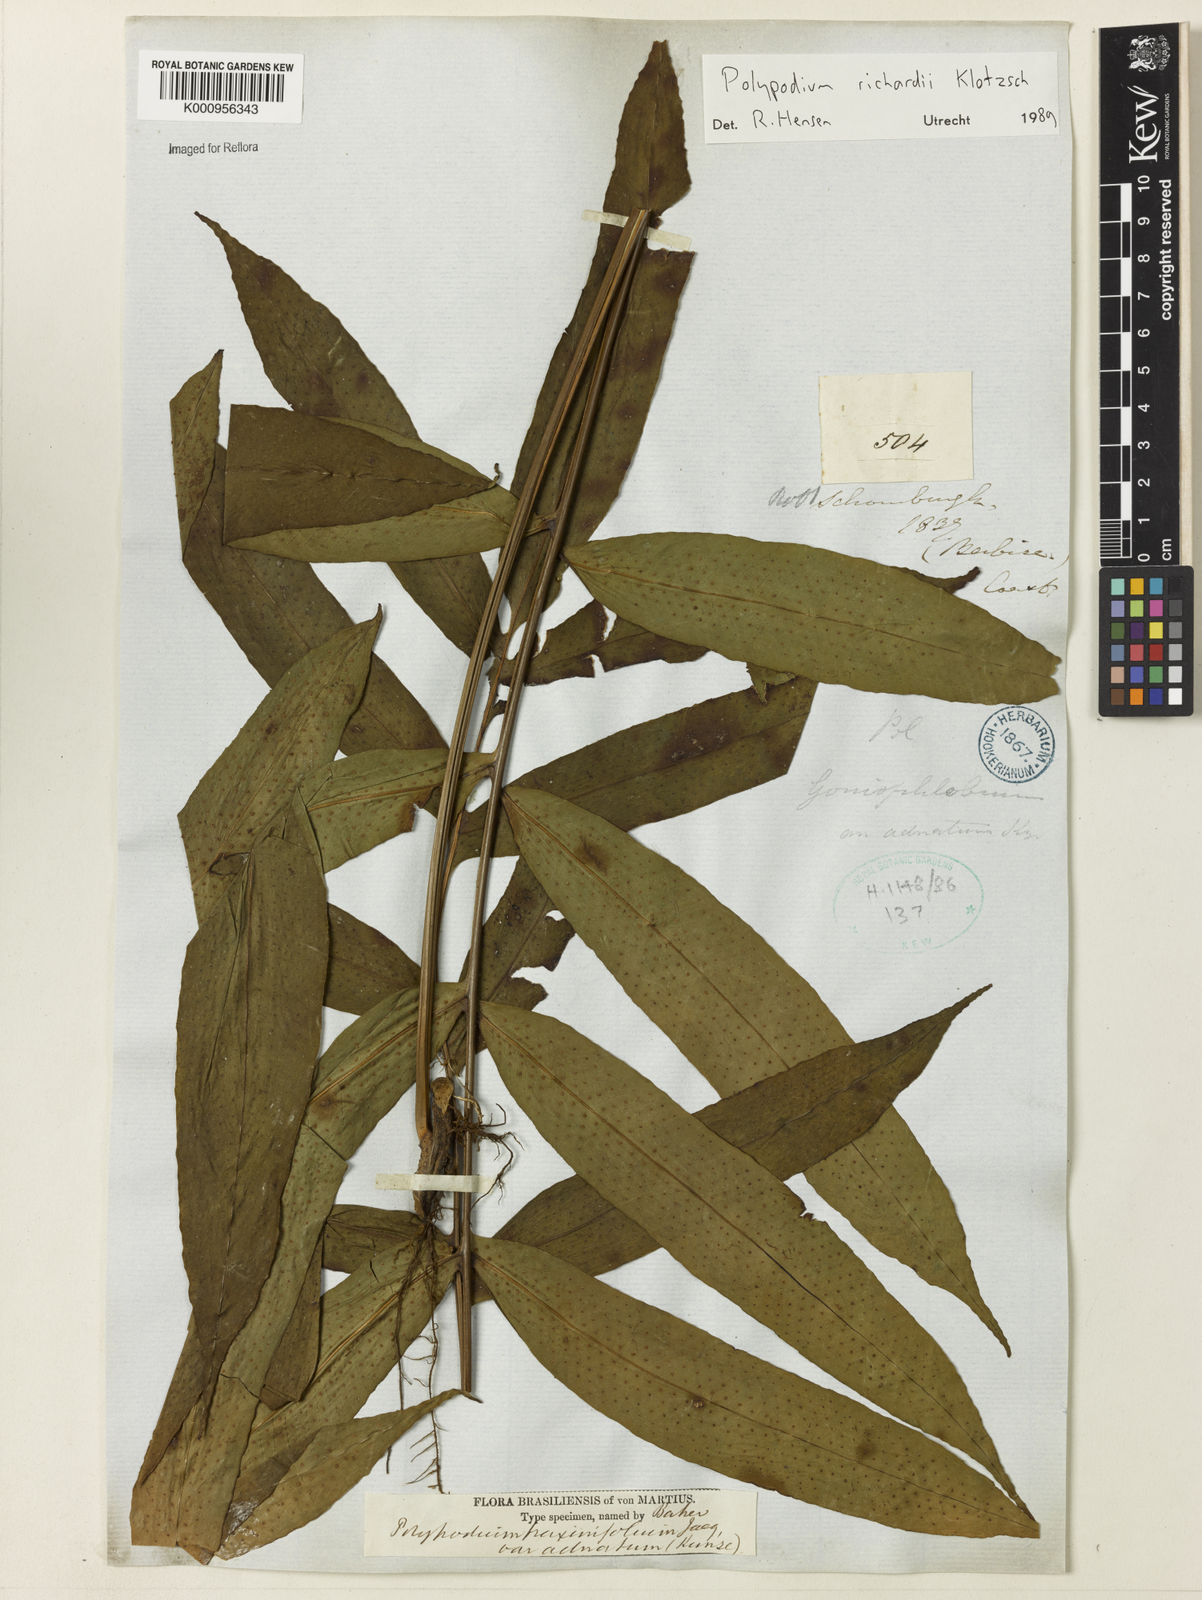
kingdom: Plantae
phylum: Tracheophyta
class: Polypodiopsida
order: Polypodiales
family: Polypodiaceae
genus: Serpocaulon
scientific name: Serpocaulon richardii
